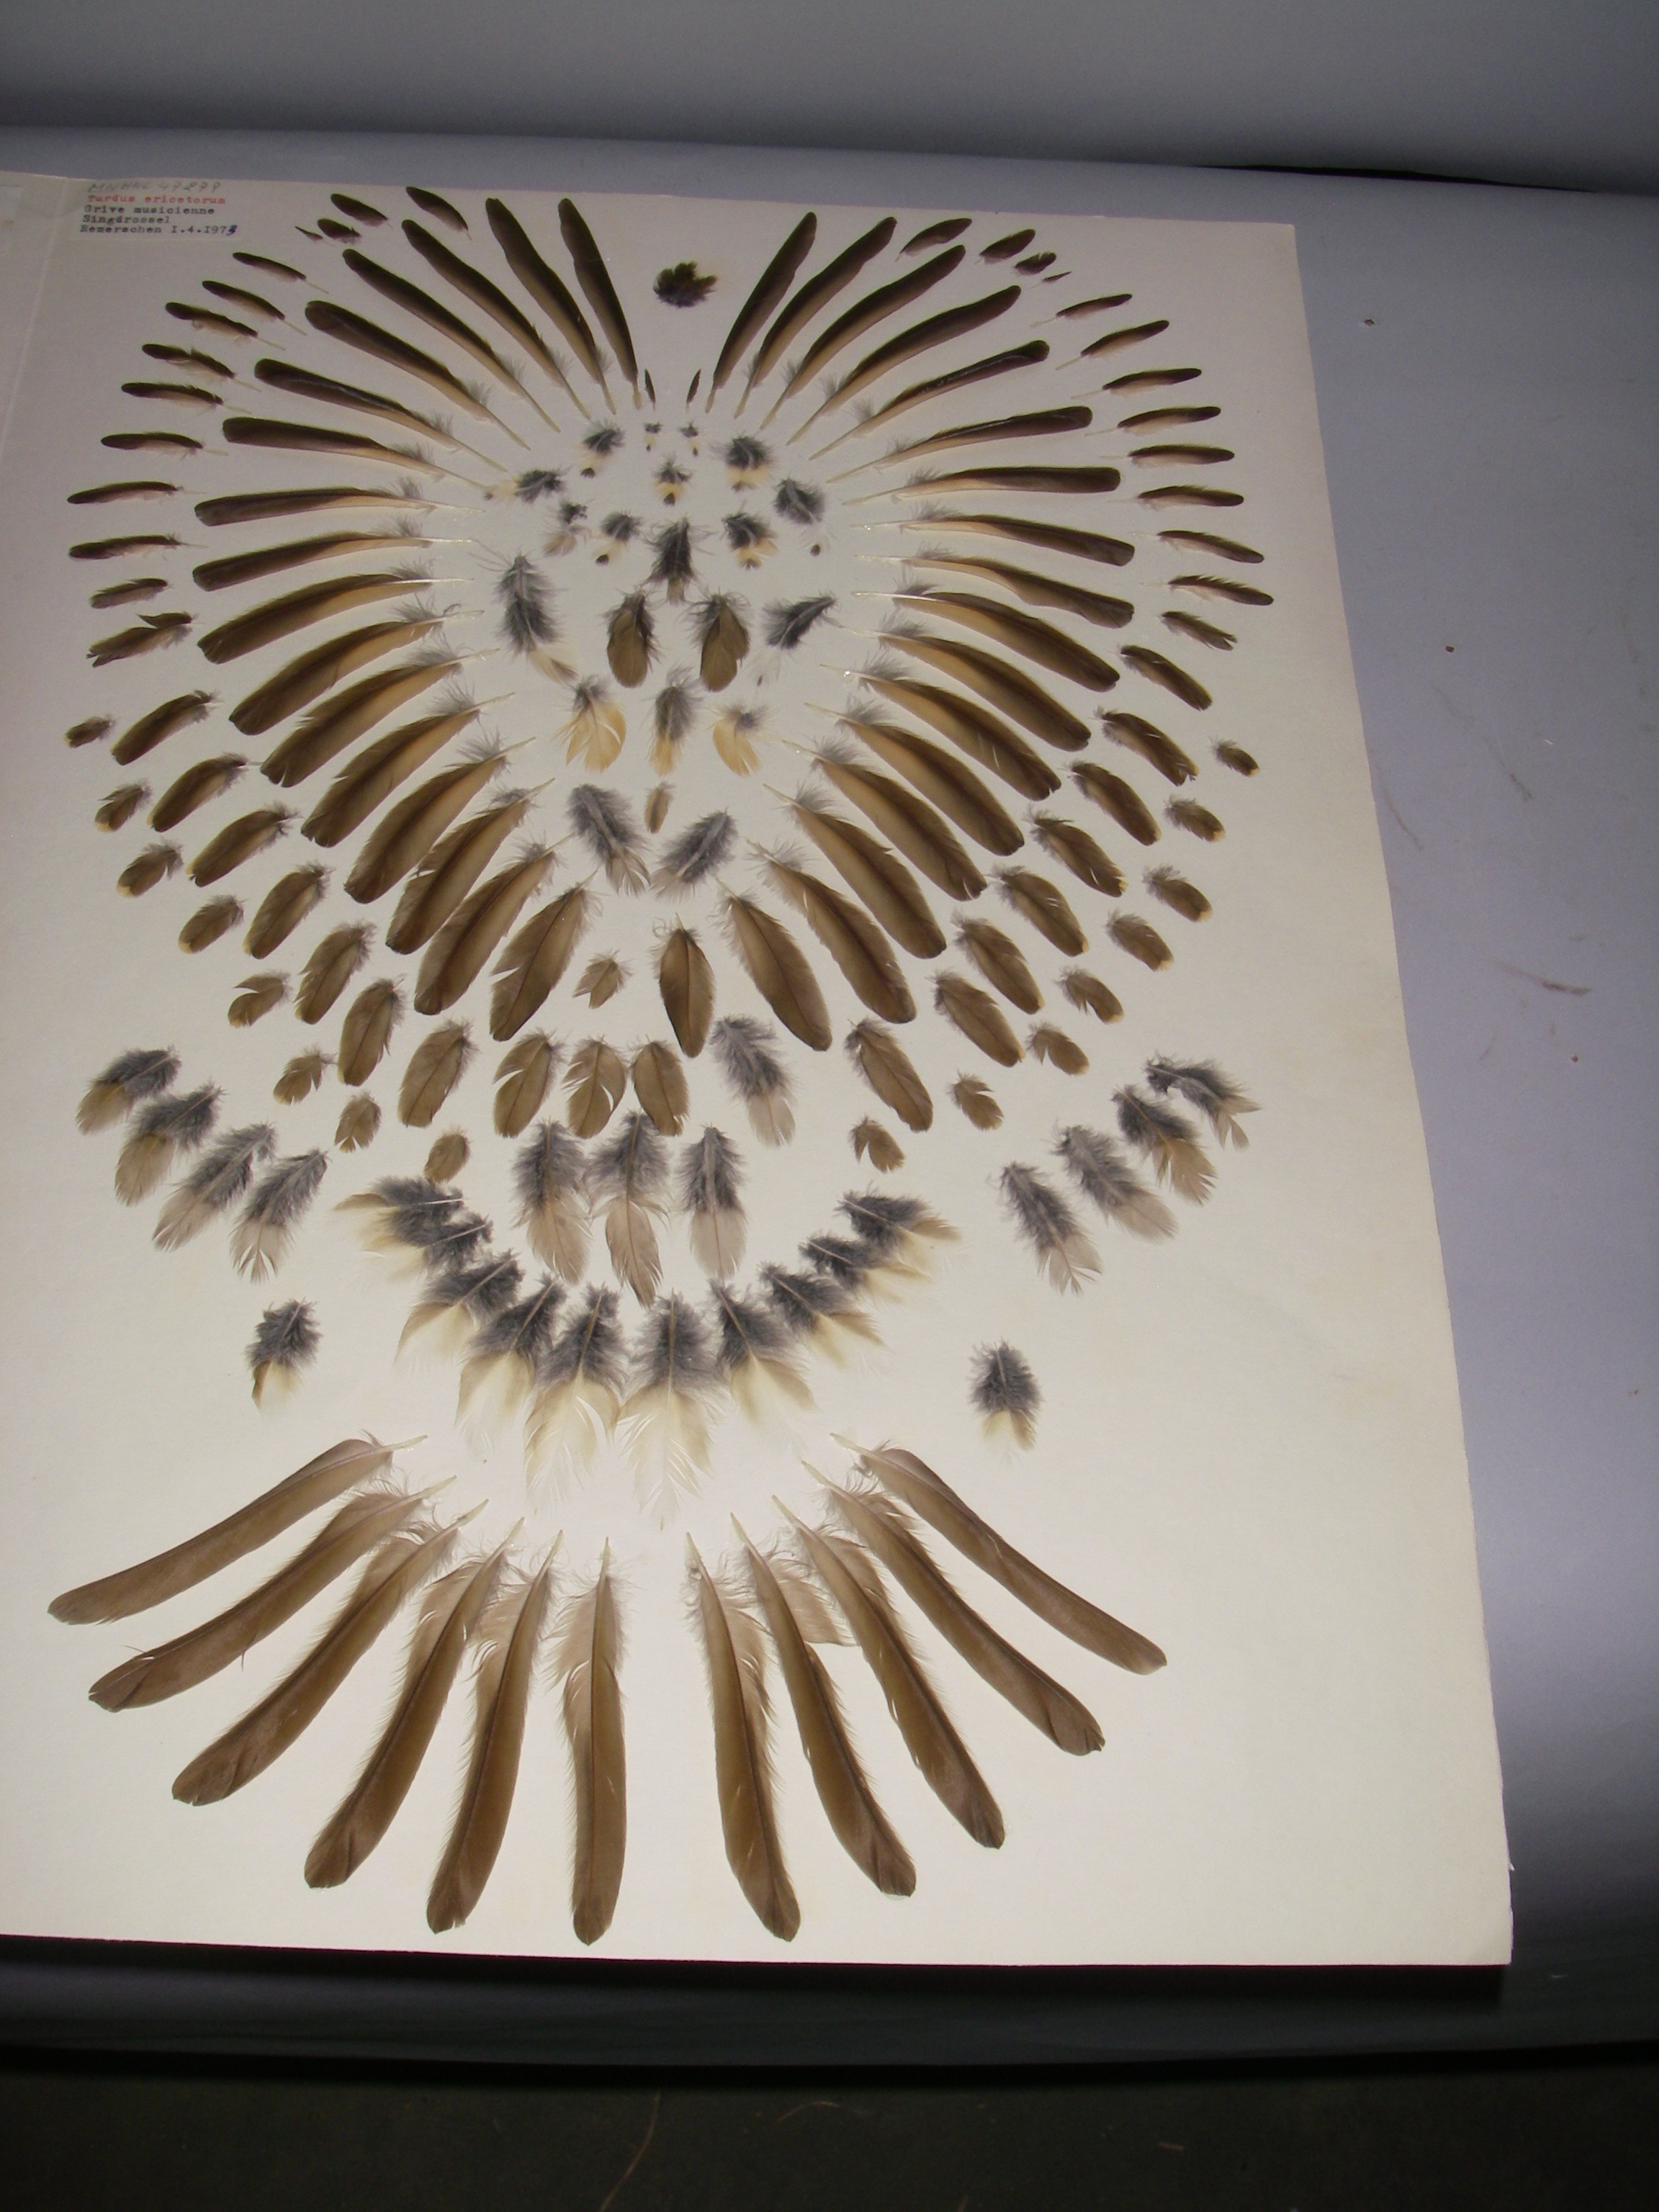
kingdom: Animalia
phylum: Chordata
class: Aves
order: Passeriformes
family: Turdidae
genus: Turdus
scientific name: Turdus philomelos
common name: Song thrush
